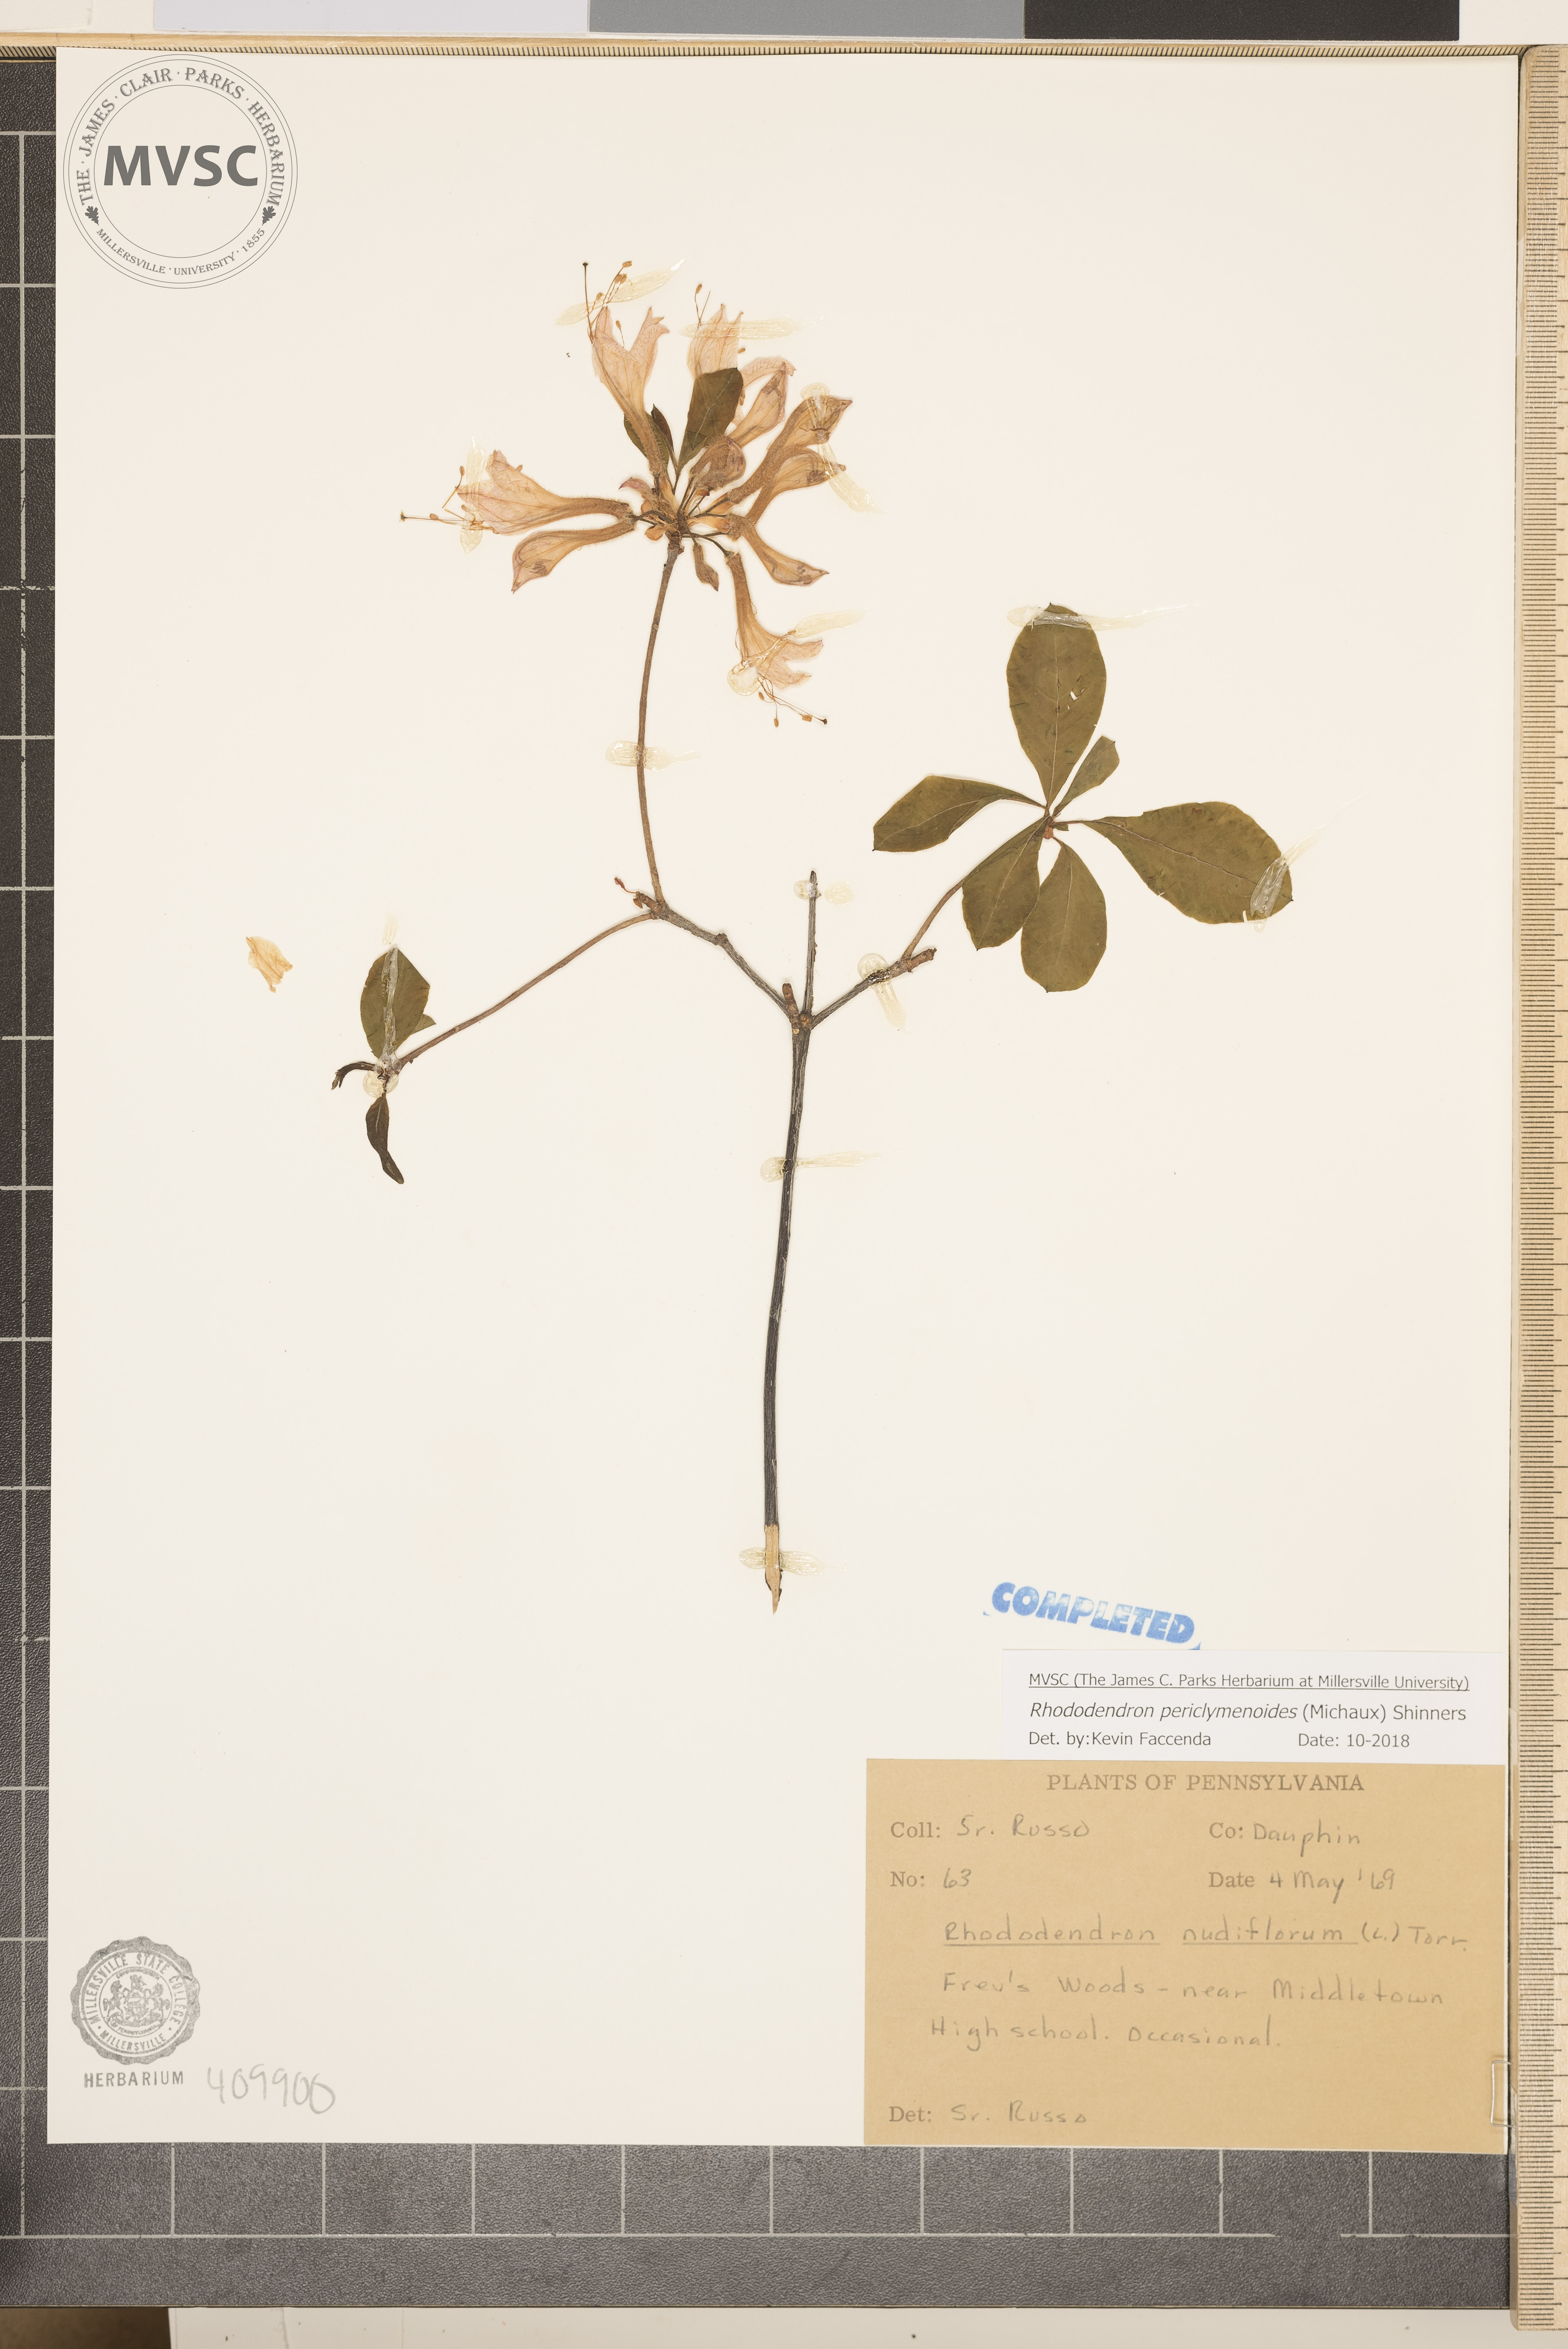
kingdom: Plantae
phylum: Tracheophyta
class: Magnoliopsida
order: Ericales
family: Ericaceae
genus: Rhododendron
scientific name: Rhododendron periclymenoides
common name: Election-pink
